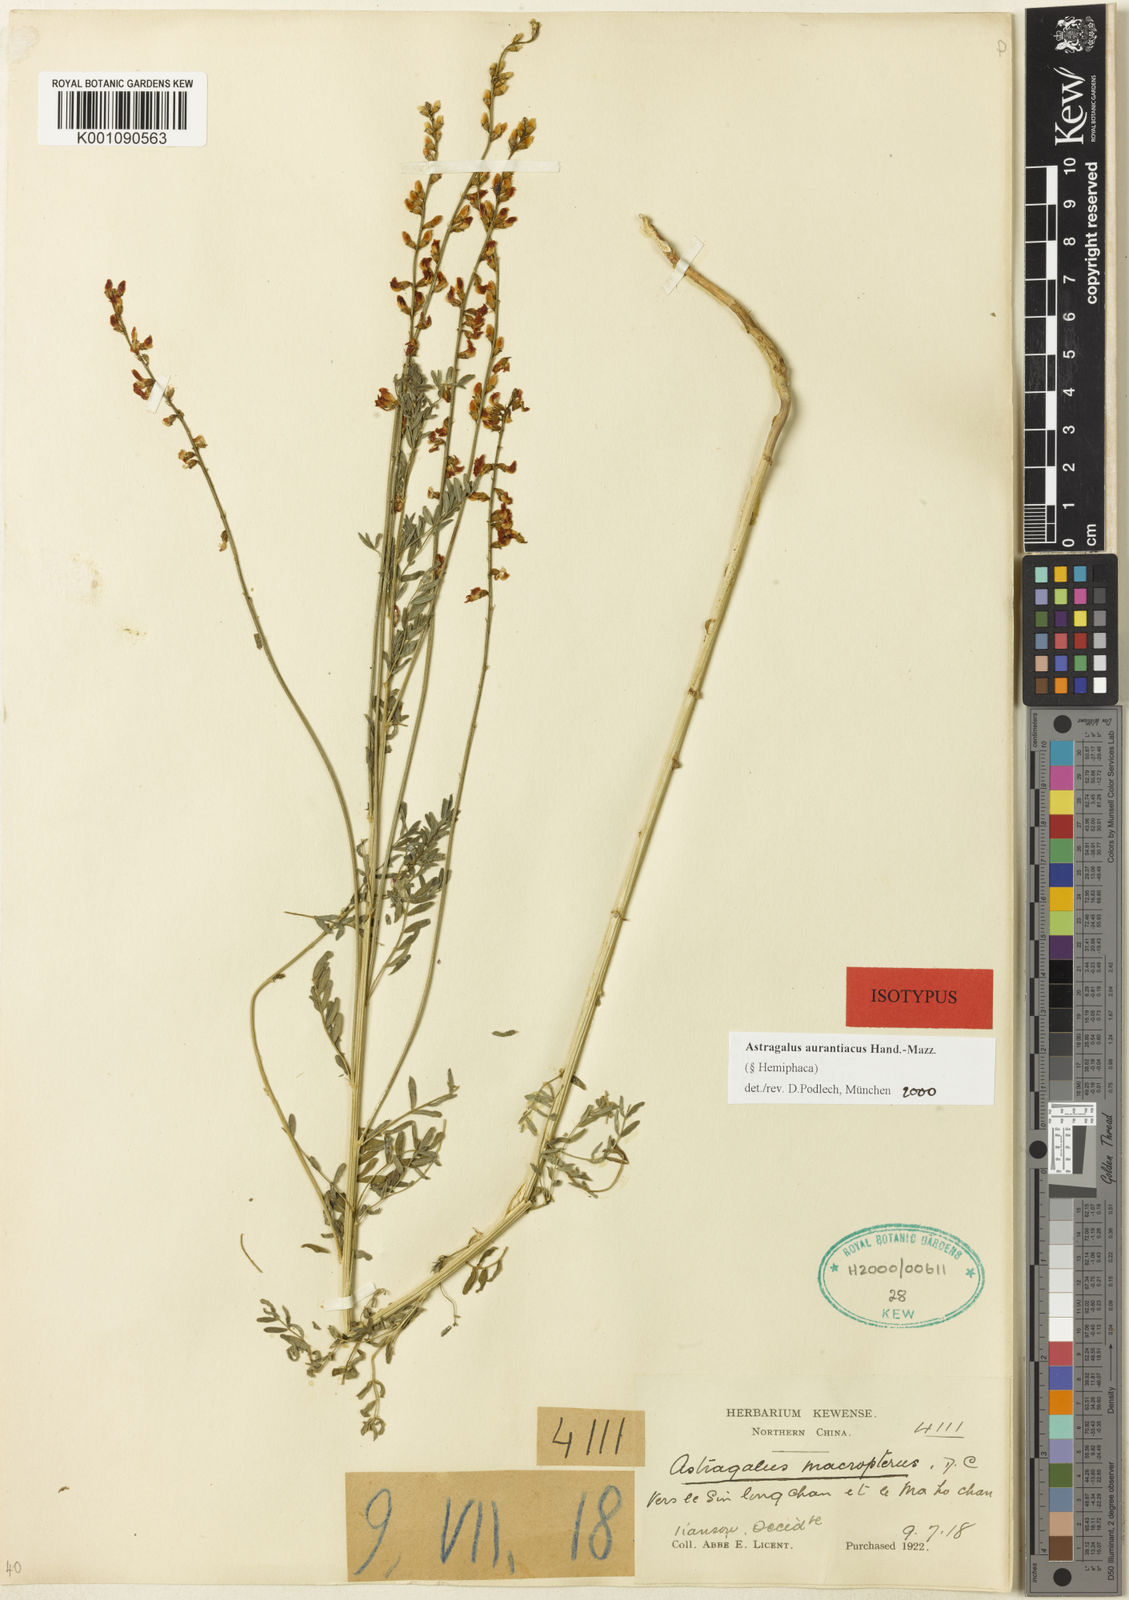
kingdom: Plantae
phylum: Tracheophyta
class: Magnoliopsida
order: Fabales
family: Fabaceae
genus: Astragalus
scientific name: Astragalus
